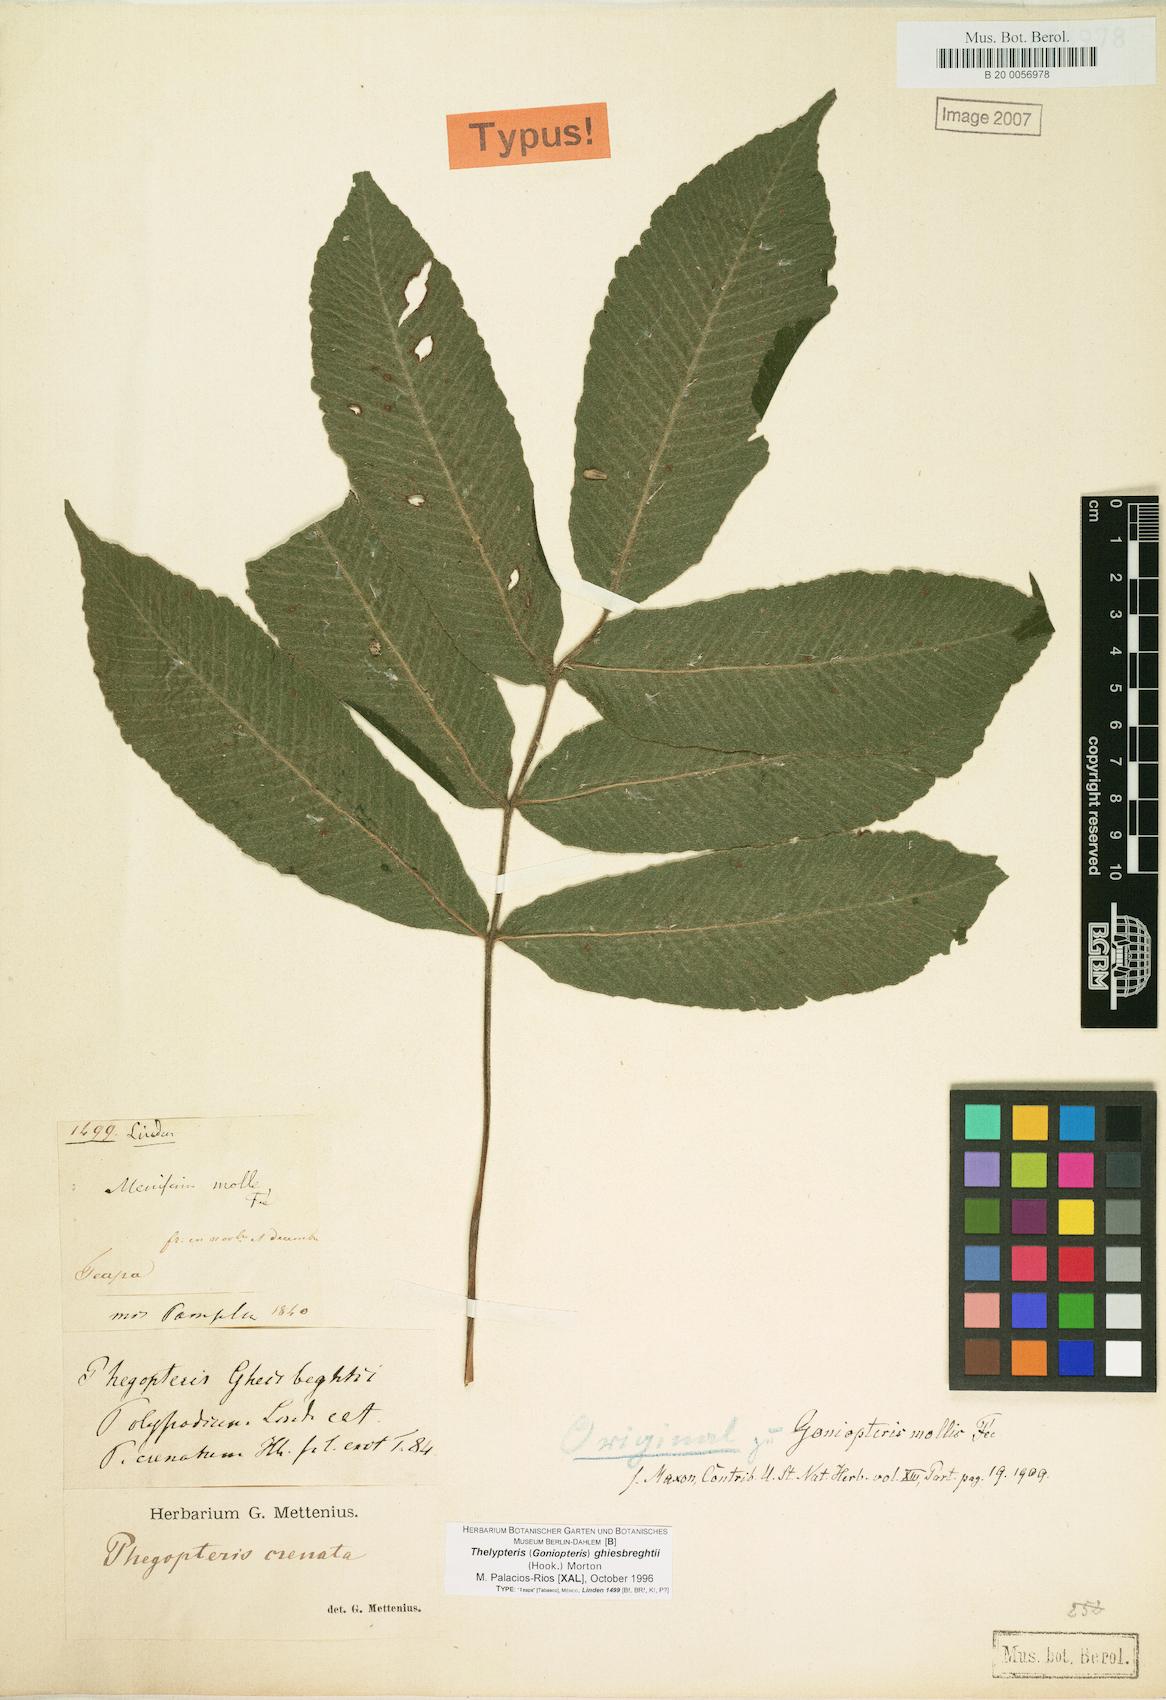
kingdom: Plantae
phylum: Tracheophyta
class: Polypodiopsida
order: Polypodiales
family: Thelypteridaceae
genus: Goniopteris
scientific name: Goniopteris mollis
